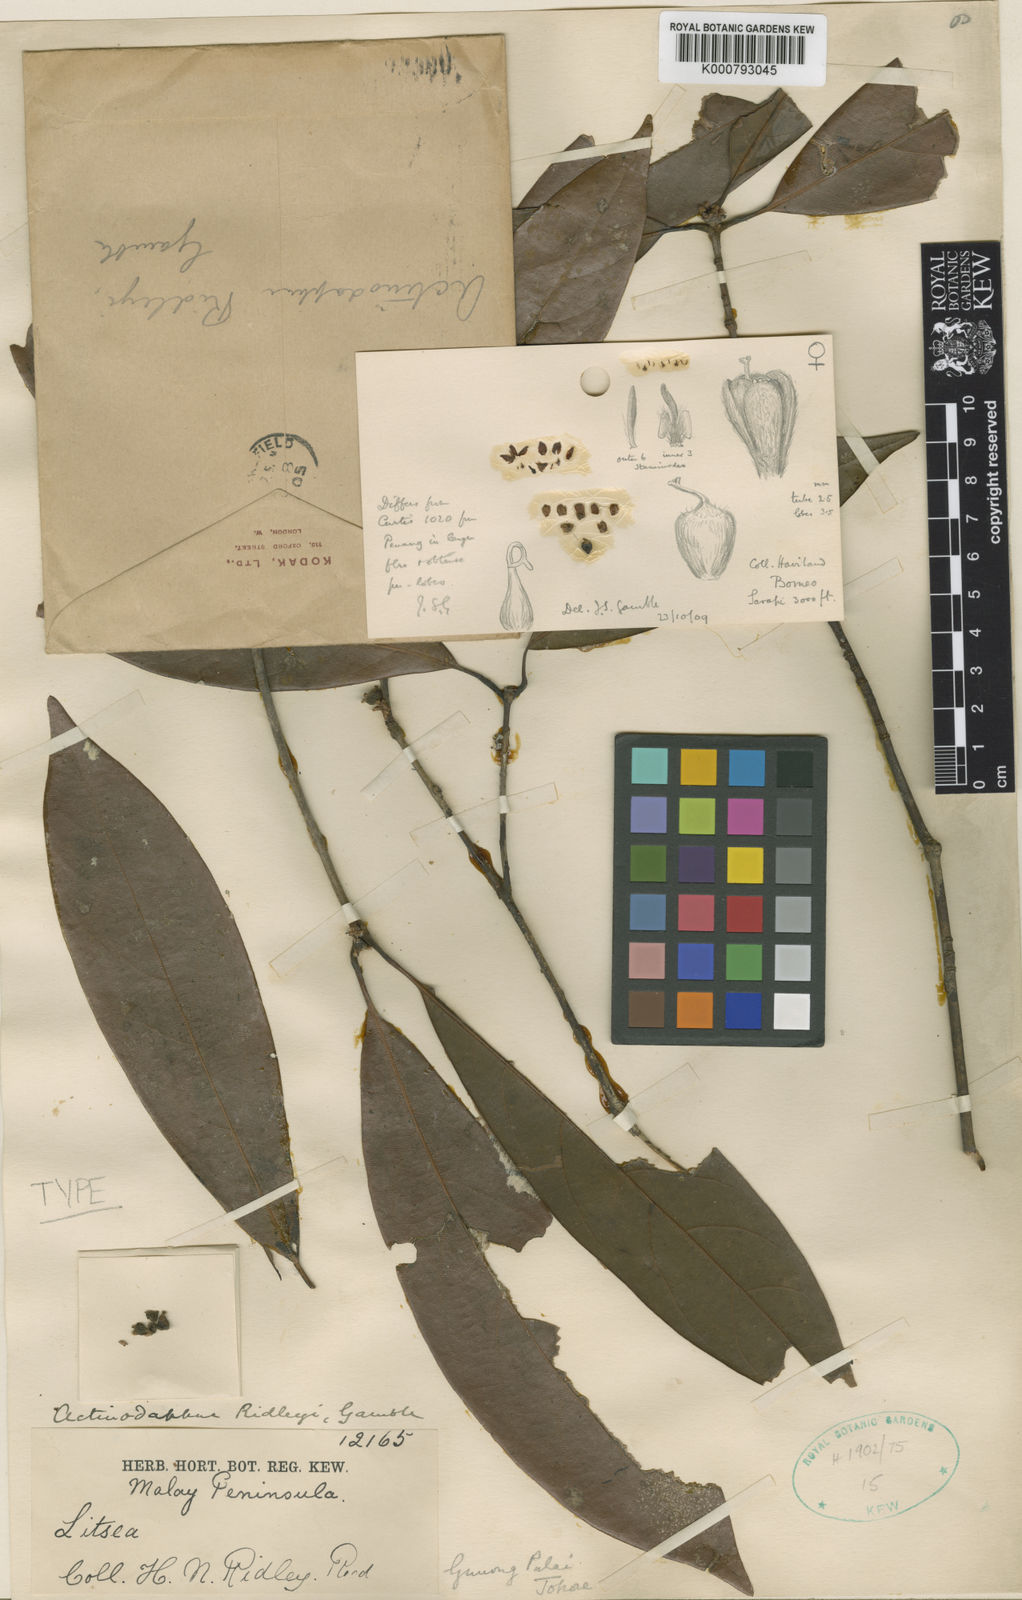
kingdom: Plantae
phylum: Tracheophyta
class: Magnoliopsida
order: Laurales
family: Lauraceae
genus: Actinodaphne
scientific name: Actinodaphne ridleyi
